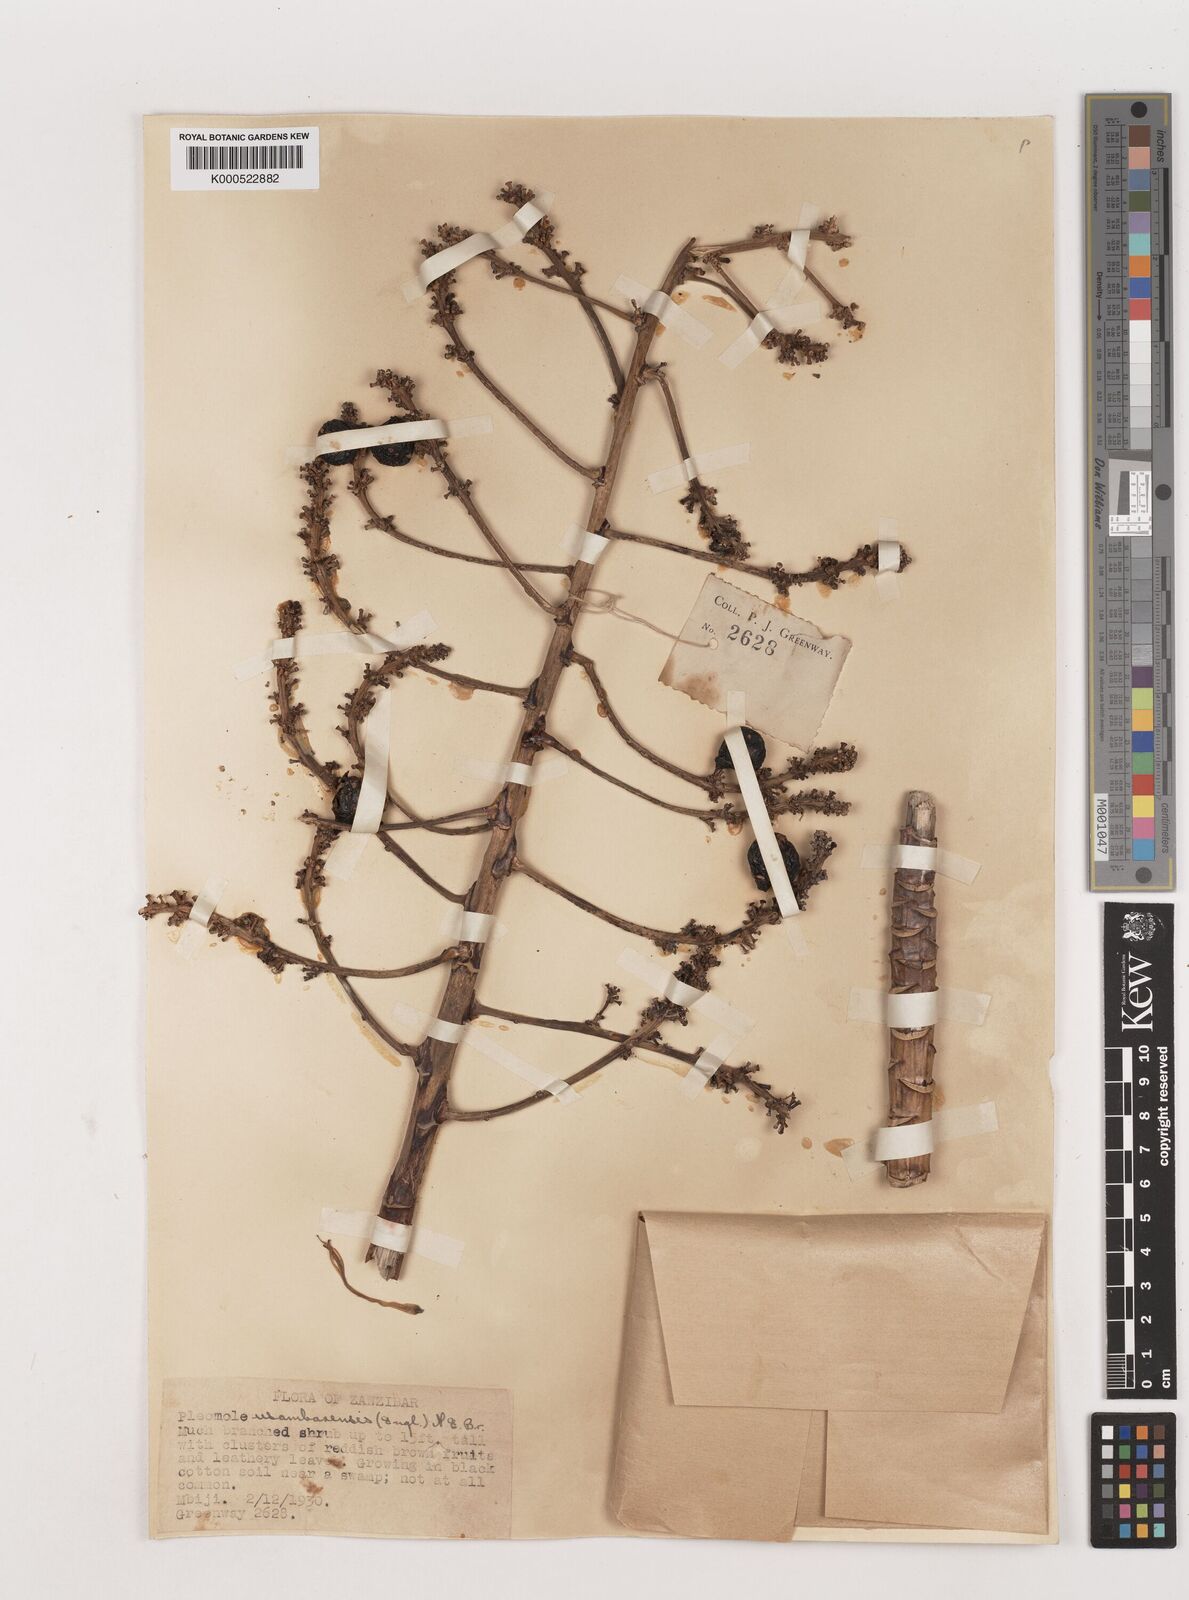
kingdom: Plantae
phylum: Tracheophyta
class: Liliopsida
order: Asparagales
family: Asparagaceae
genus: Dracaena
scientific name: Dracaena usambarensis
